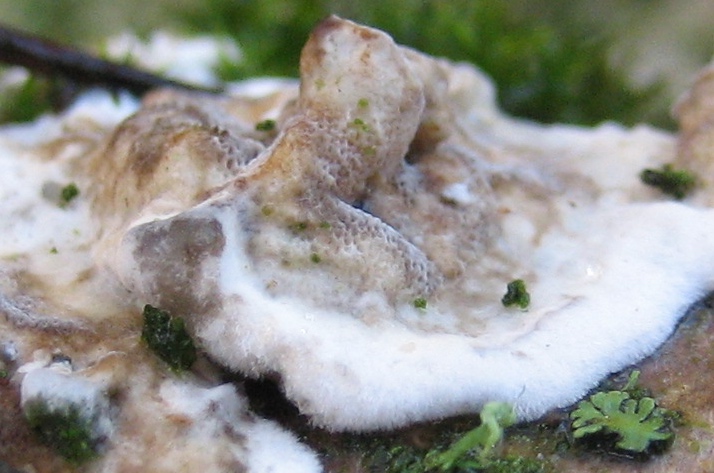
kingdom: Fungi
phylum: Basidiomycota
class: Agaricomycetes
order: Polyporales
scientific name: Polyporales
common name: poresvampordenen
